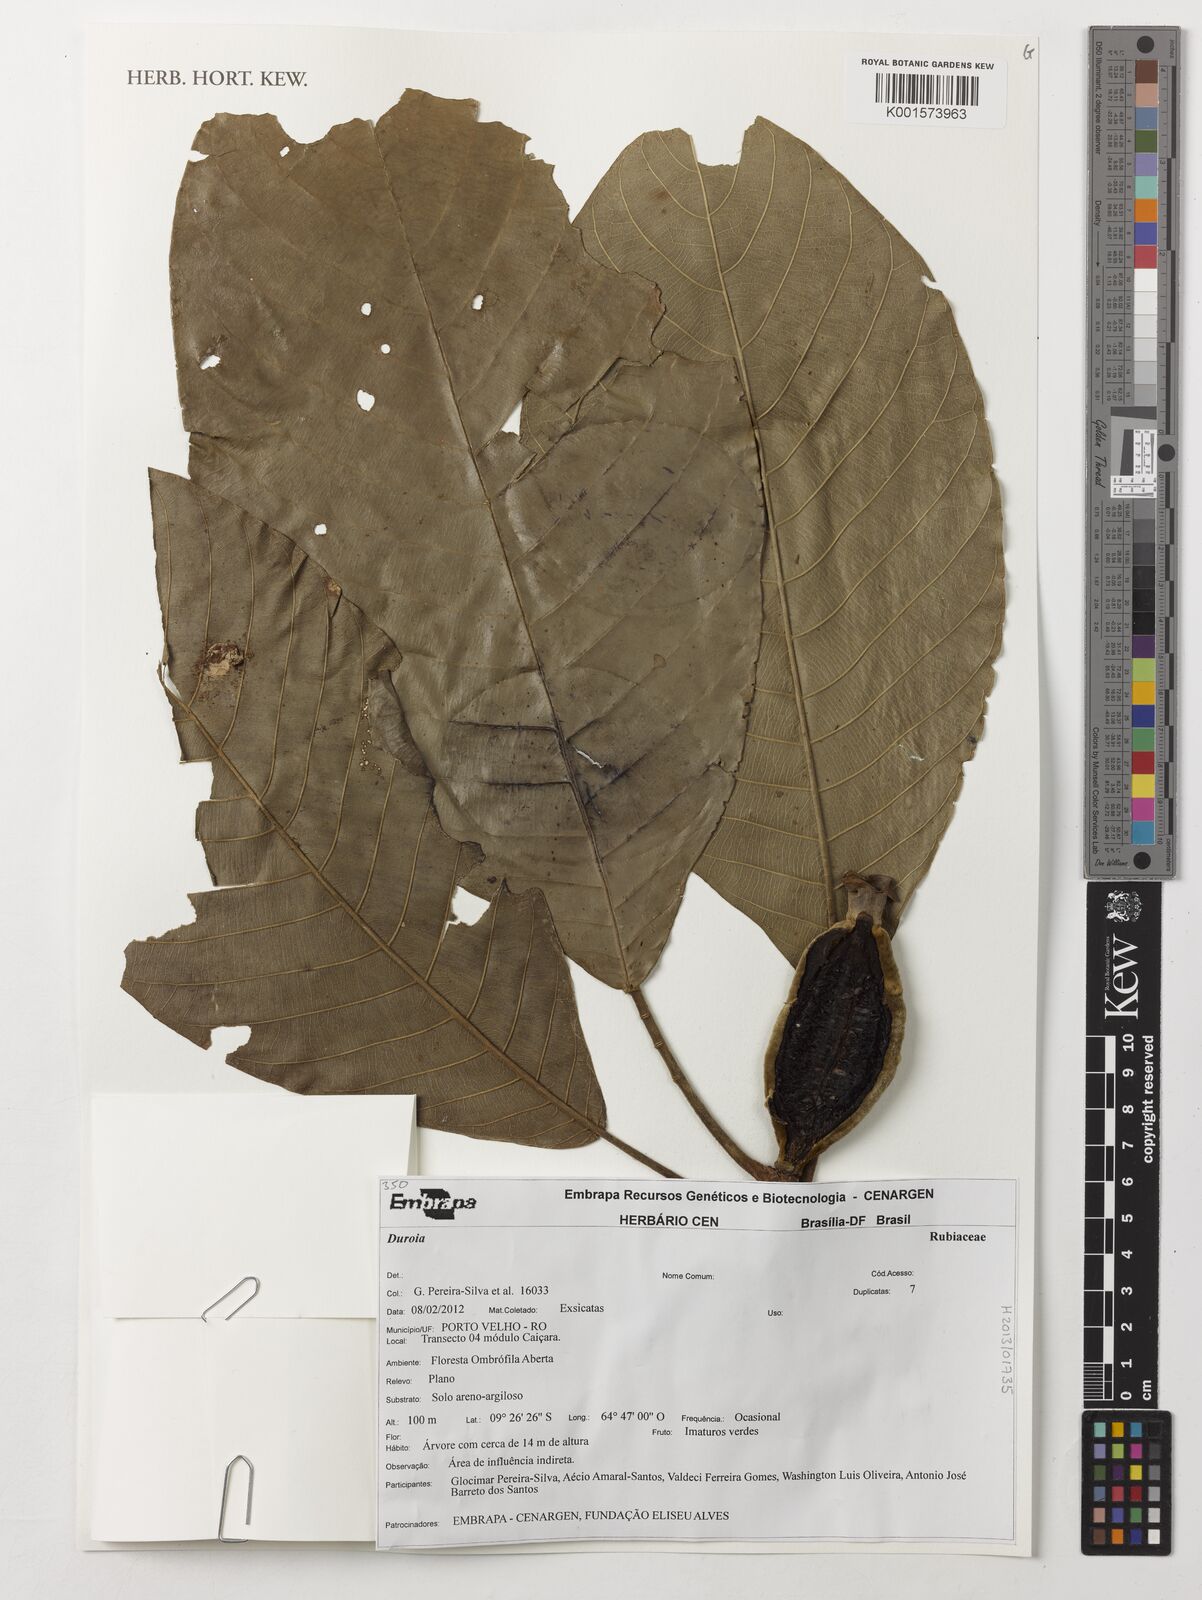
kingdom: Plantae
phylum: Tracheophyta
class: Magnoliopsida
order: Gentianales
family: Rubiaceae
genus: Duroia
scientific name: Duroia
